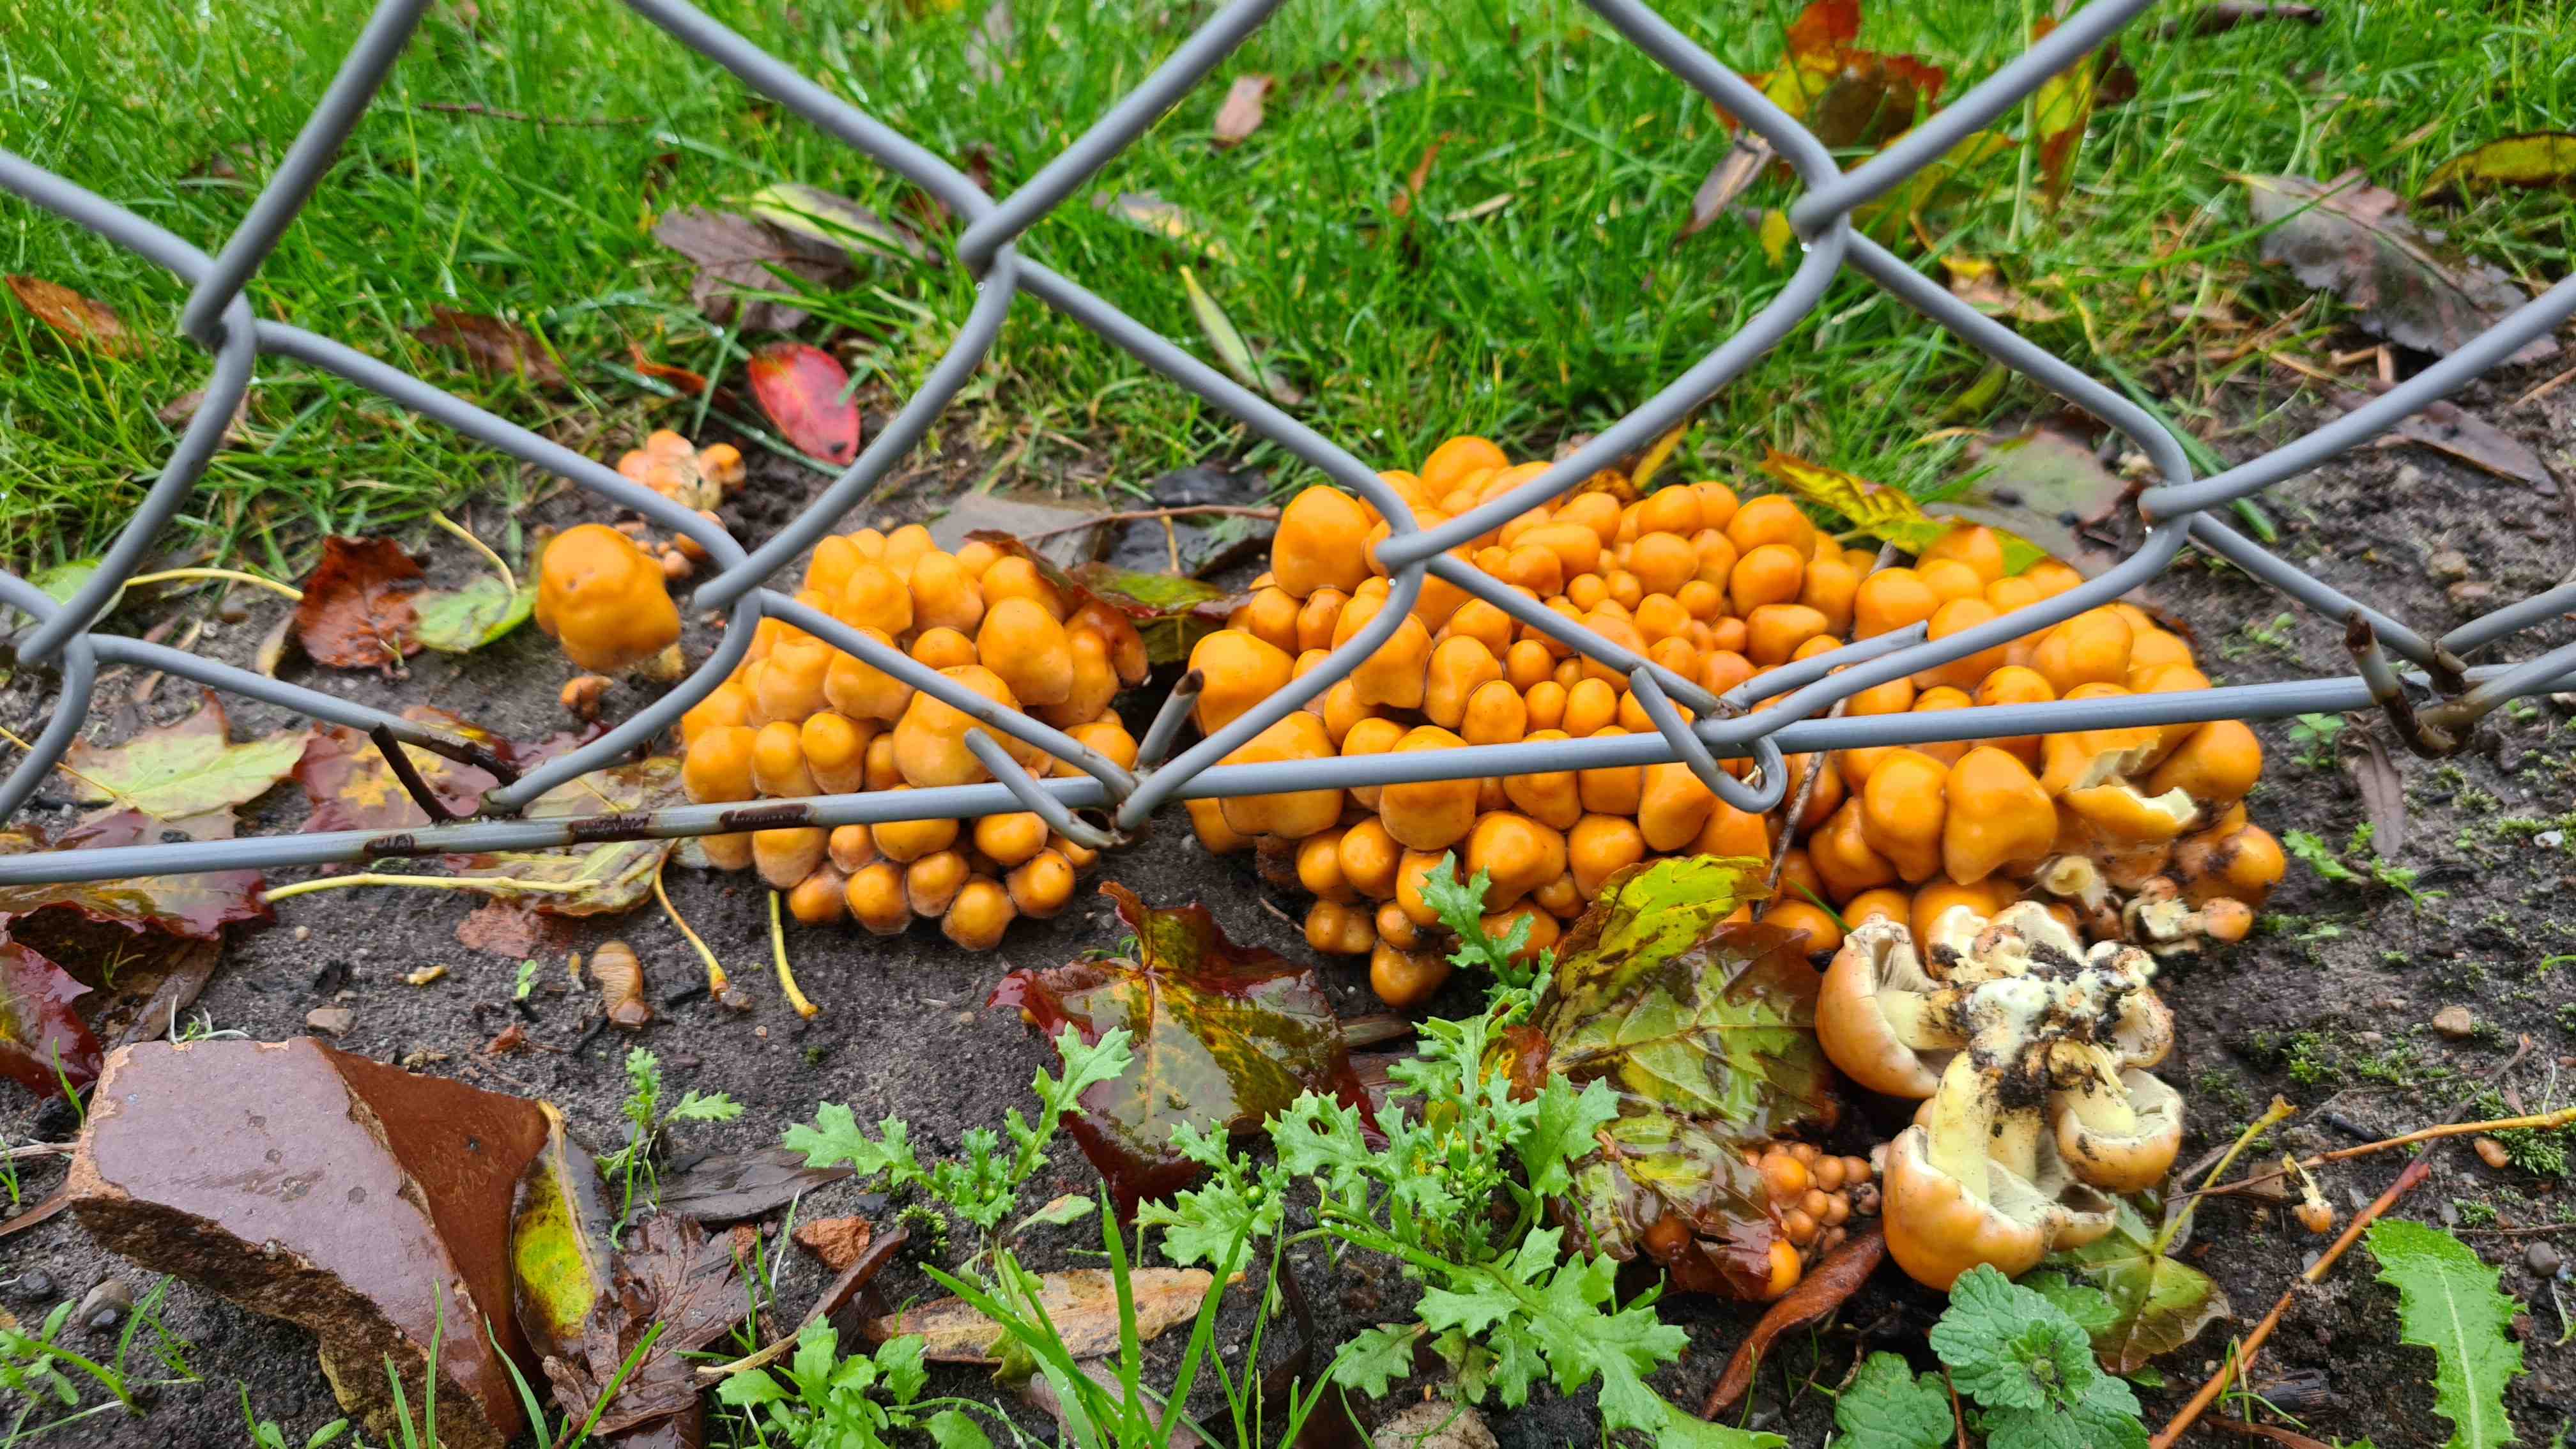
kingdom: Fungi
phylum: Basidiomycota
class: Agaricomycetes
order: Agaricales
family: Strophariaceae
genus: Hypholoma
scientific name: Hypholoma fasciculare
